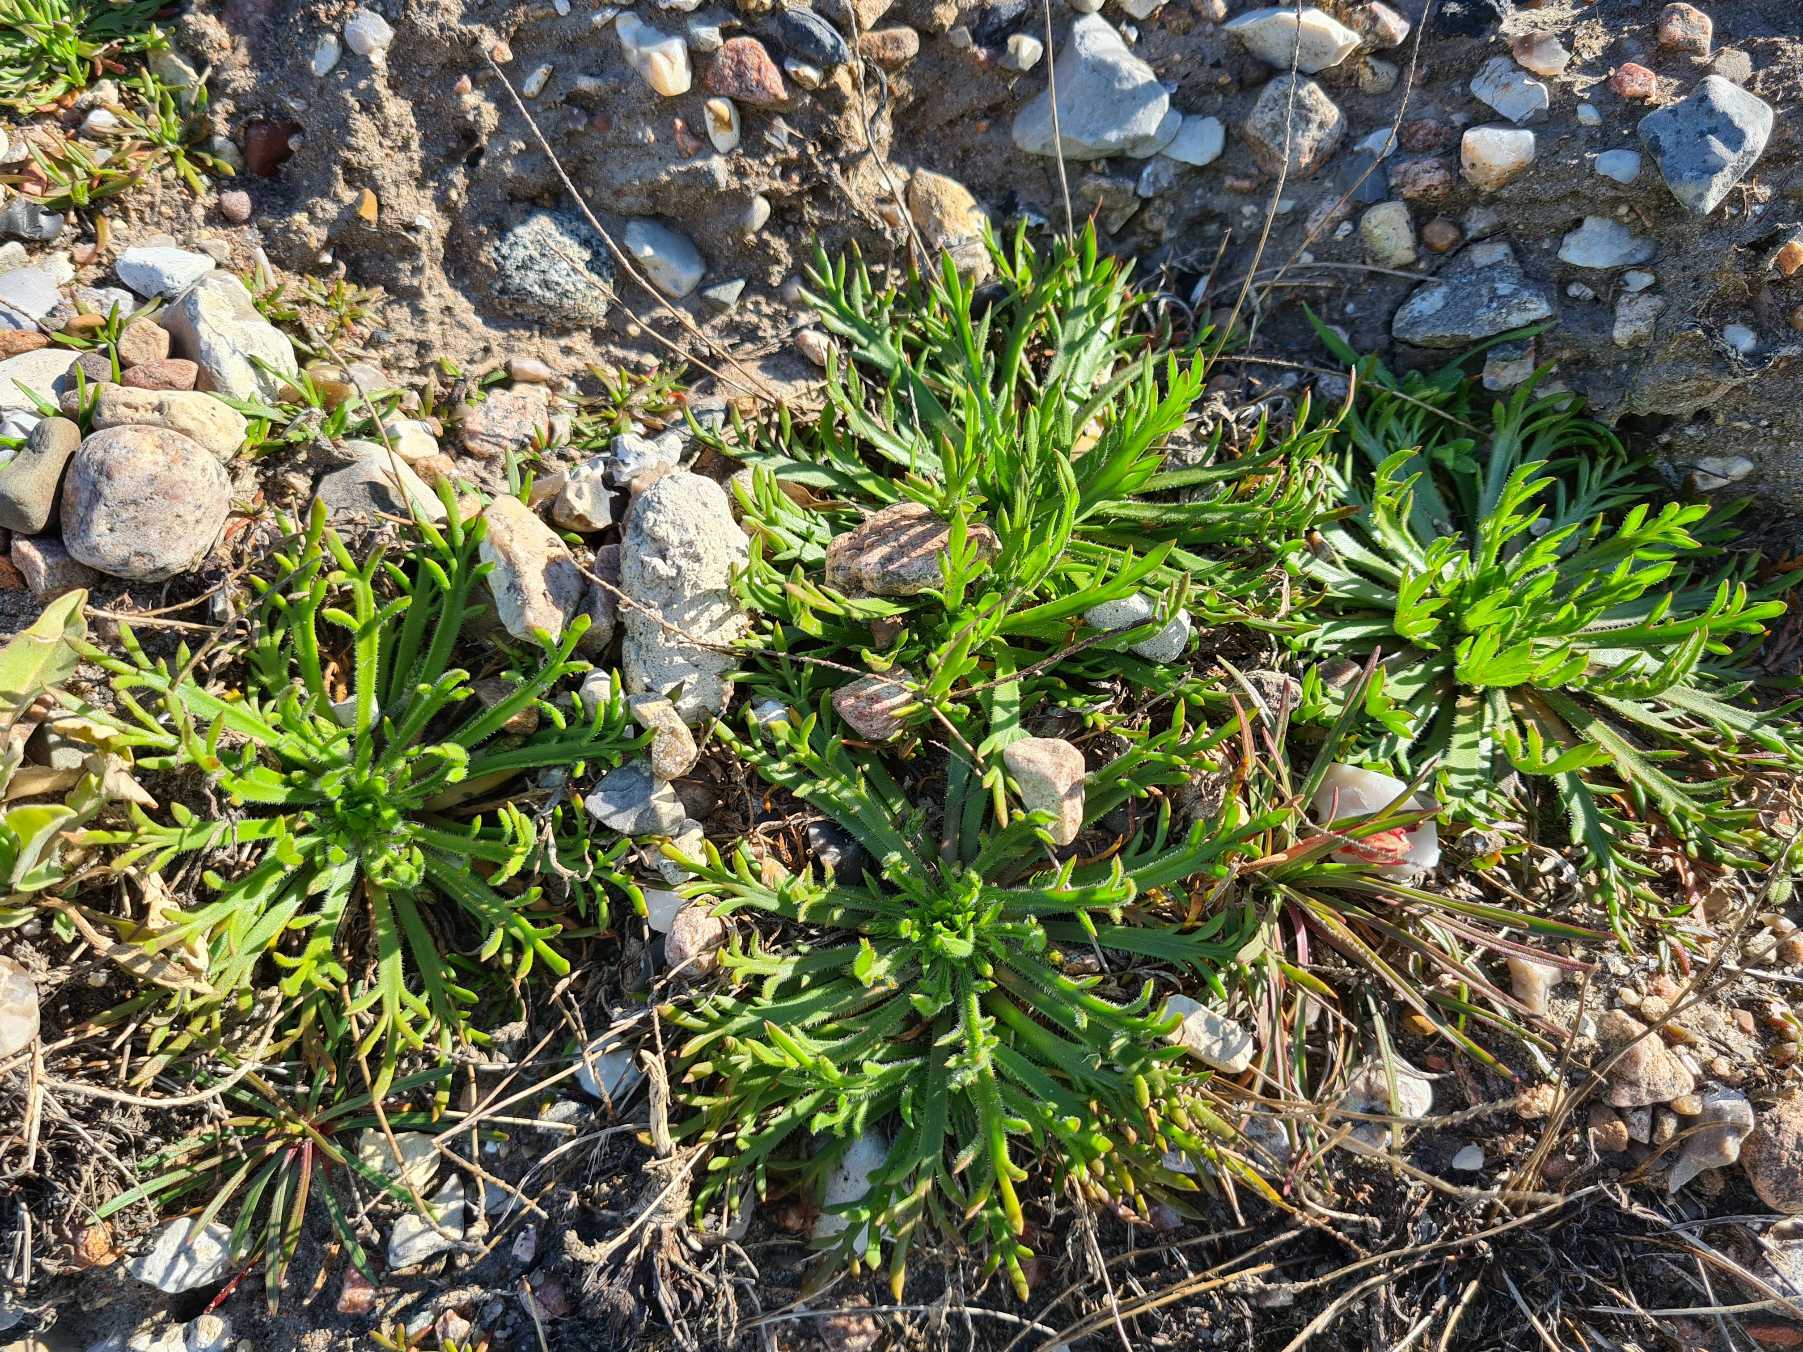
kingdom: Plantae
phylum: Tracheophyta
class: Magnoliopsida
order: Lamiales
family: Plantaginaceae
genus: Plantago
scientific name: Plantago coronopus
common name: Fliget vejbred
